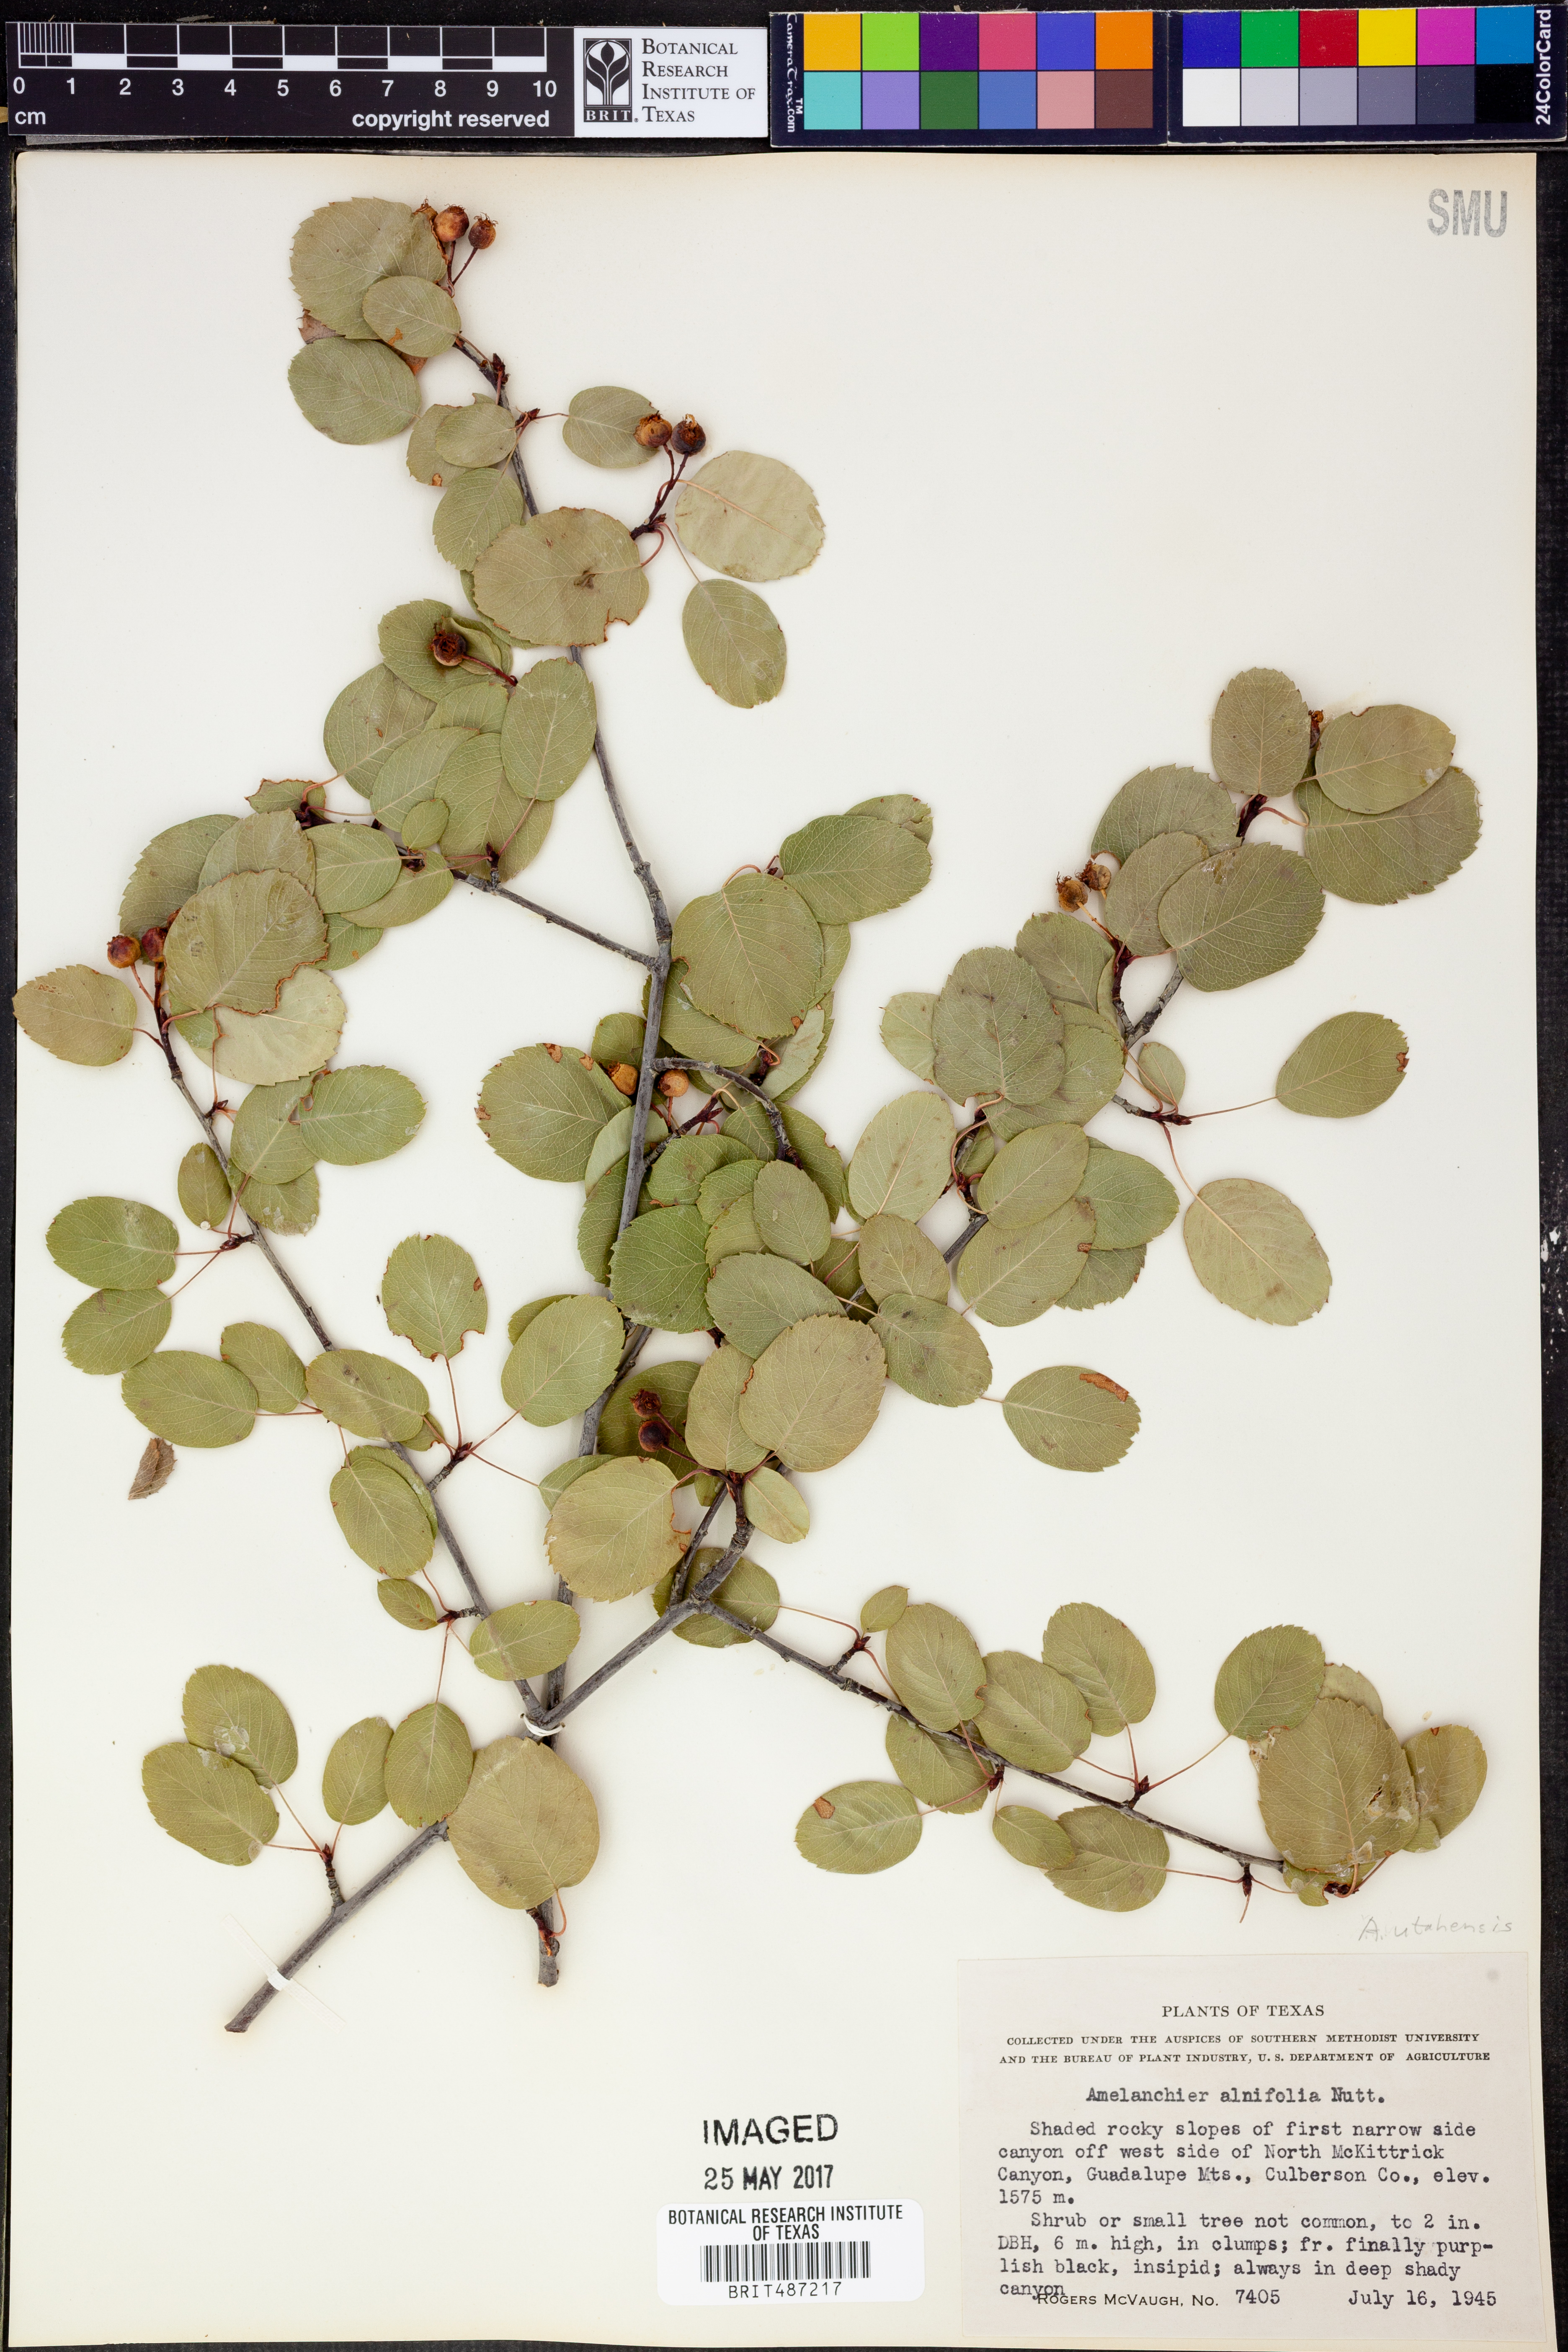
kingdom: Plantae
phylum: Tracheophyta
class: Magnoliopsida
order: Rosales
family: Rosaceae
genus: Amelanchier
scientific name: Amelanchier alnifolia
